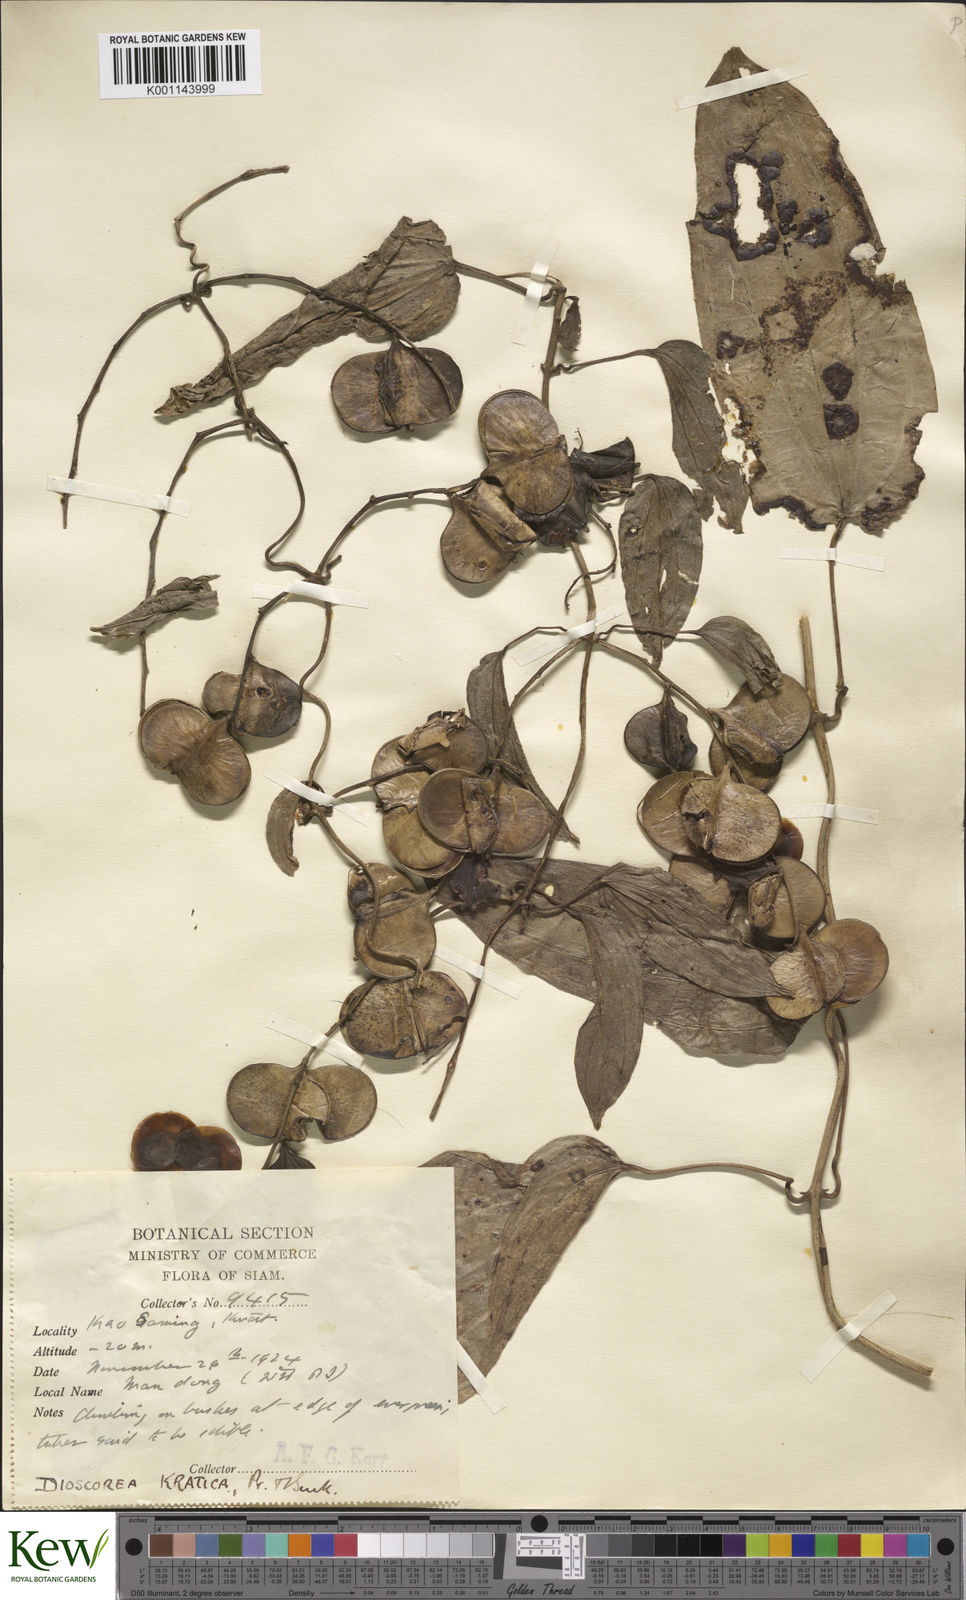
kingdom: Plantae
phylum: Tracheophyta
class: Liliopsida
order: Dioscoreales
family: Dioscoreaceae
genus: Dioscorea
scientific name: Dioscorea kratica
